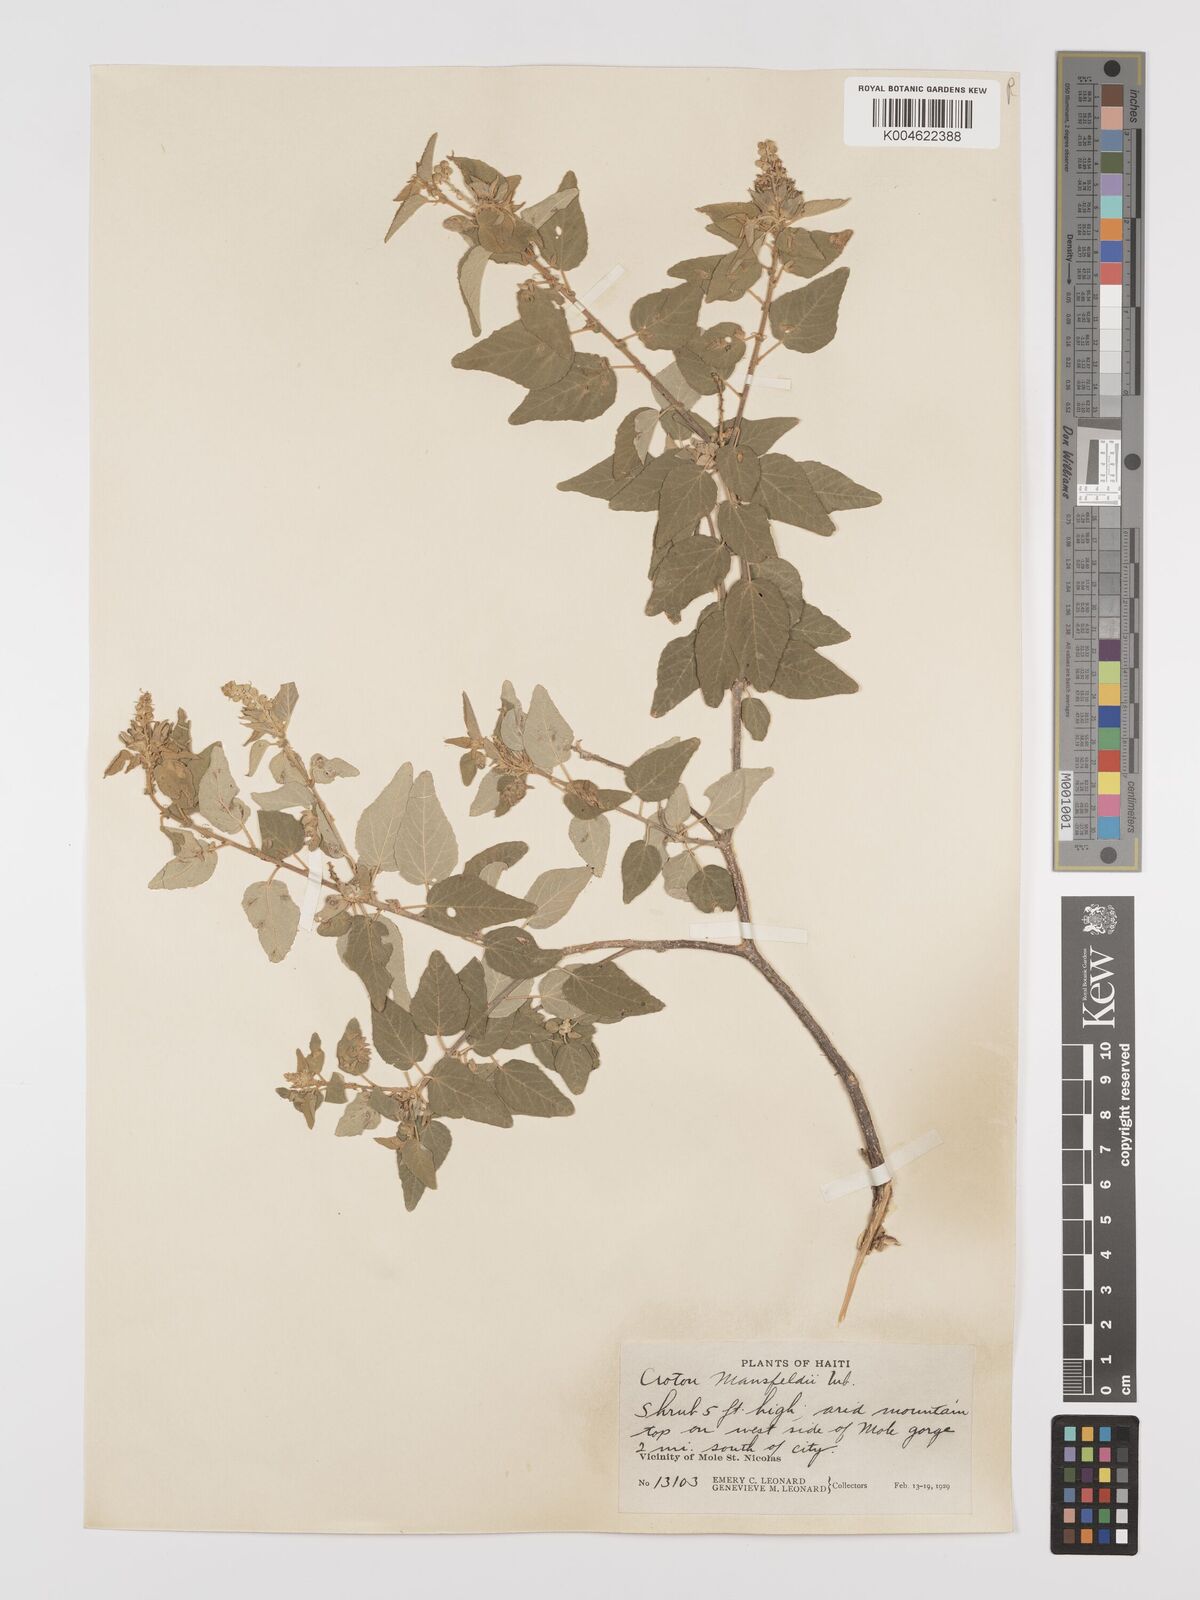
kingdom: Plantae
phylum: Tracheophyta
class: Magnoliopsida
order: Malpighiales
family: Euphorbiaceae
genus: Croton
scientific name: Croton mansfeldii
